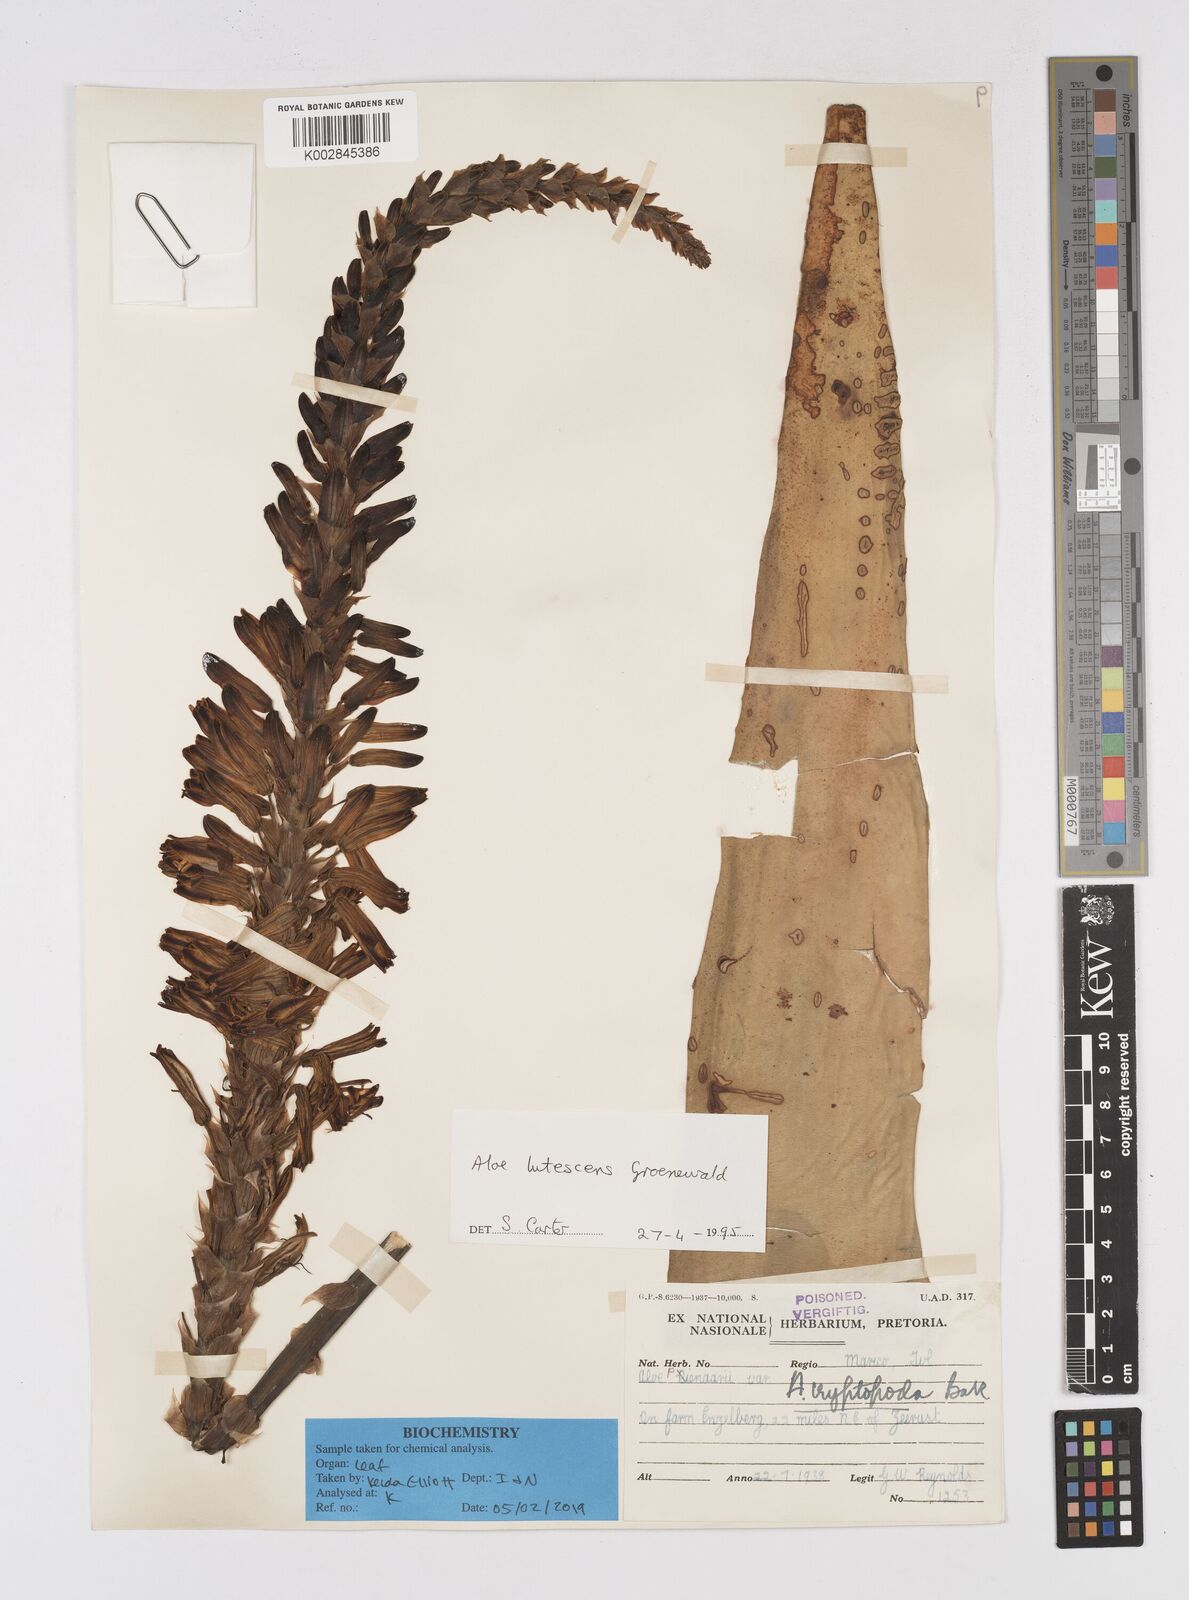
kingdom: Plantae
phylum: Tracheophyta
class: Liliopsida
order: Asparagales
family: Asphodelaceae
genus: Aloe
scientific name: Aloe lutescens
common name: Malapati aloe
